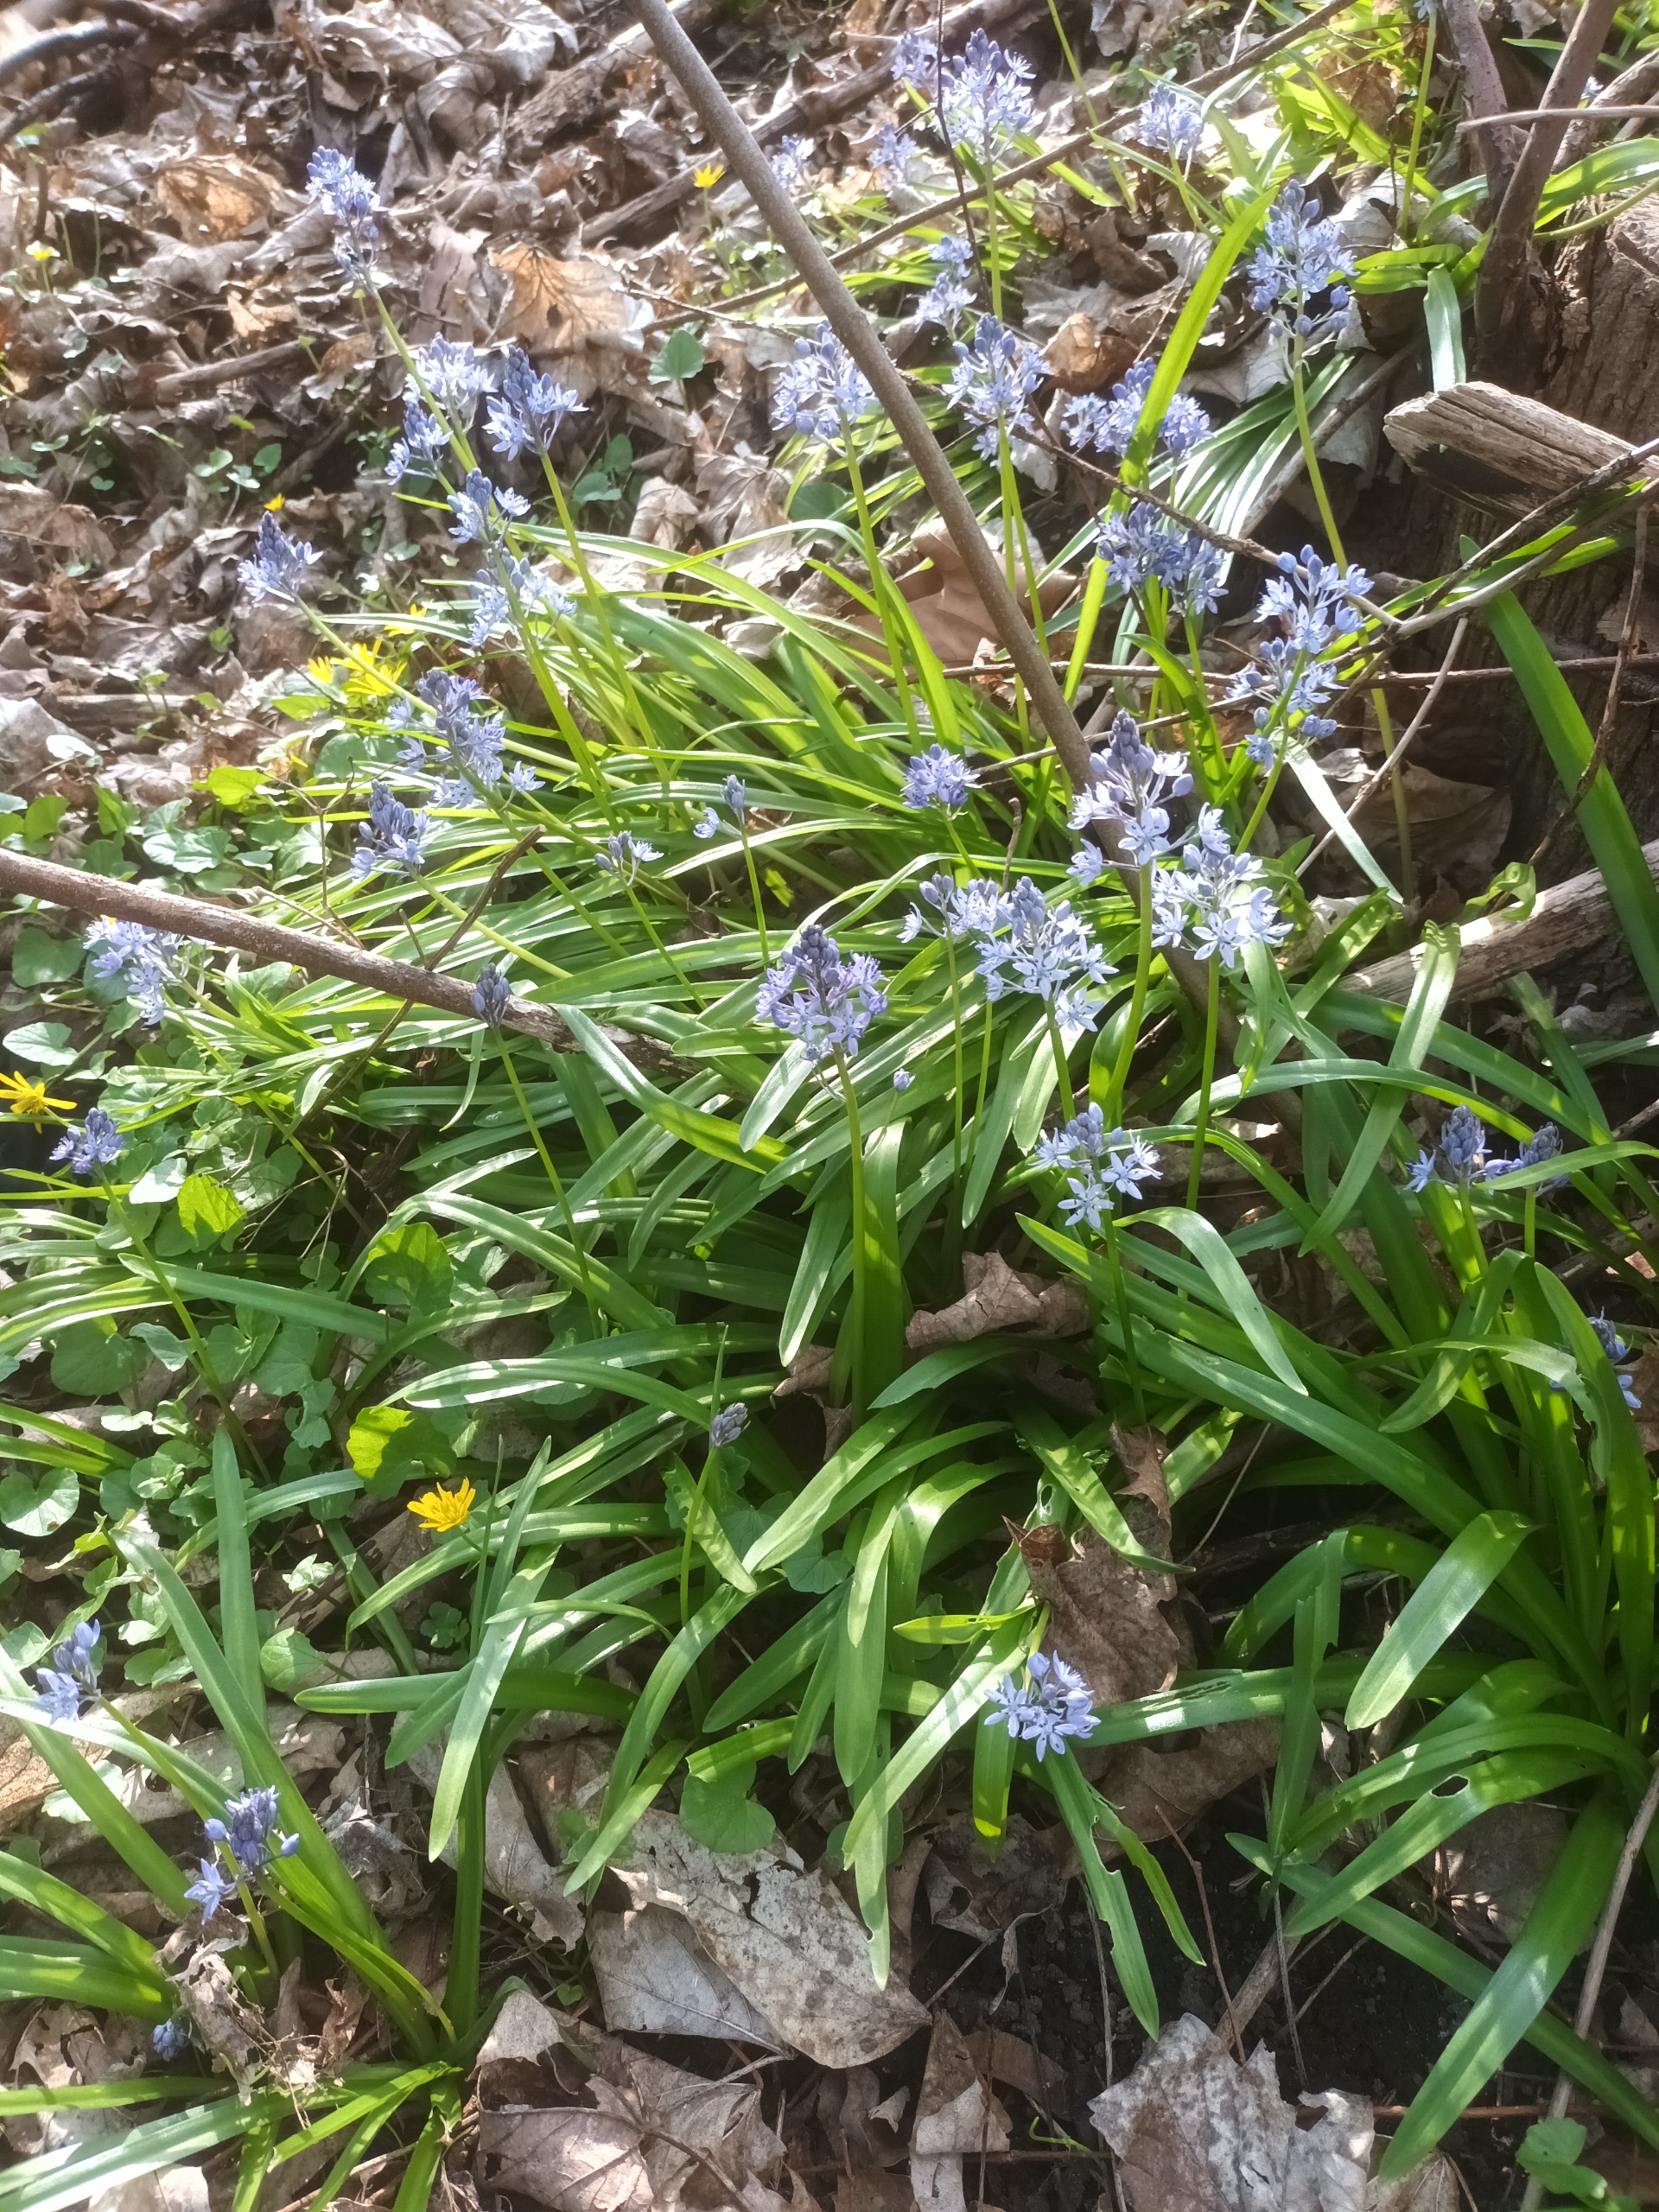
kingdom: Plantae
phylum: Tracheophyta
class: Liliopsida
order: Asparagales
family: Asparagaceae
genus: Hyacinthoides
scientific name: Hyacinthoides italica
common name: Italiensk skilla
